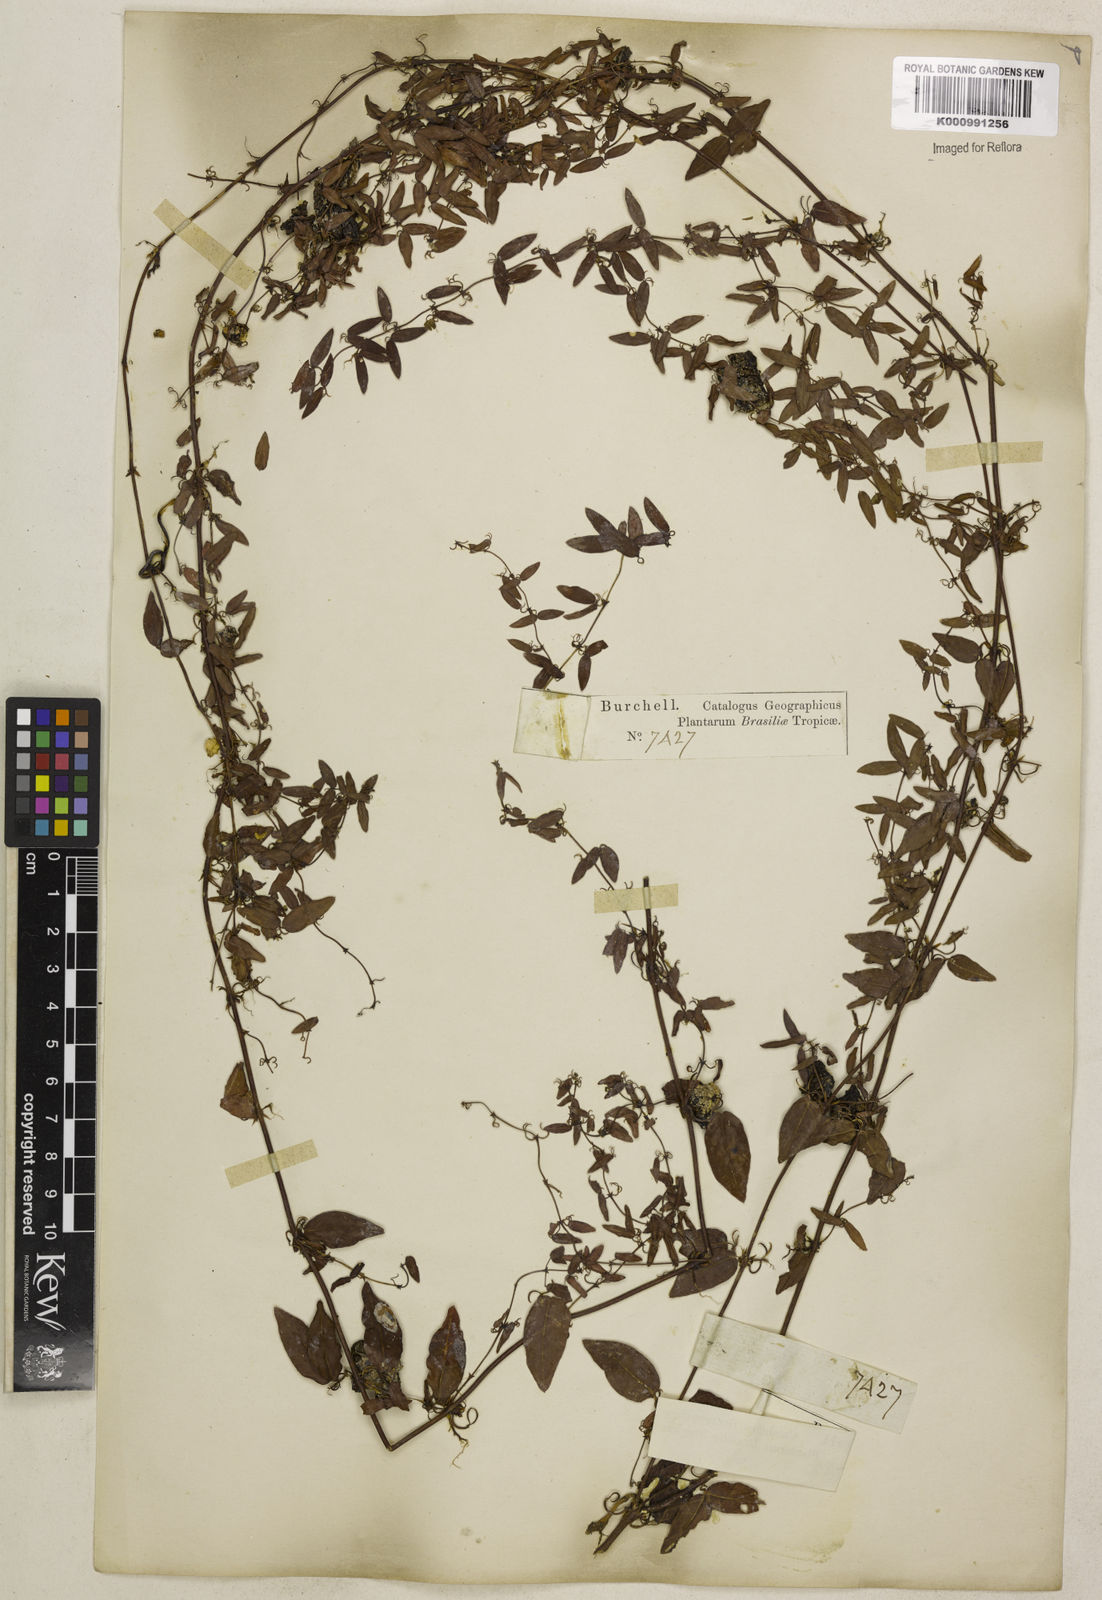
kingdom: Plantae
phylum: Tracheophyta
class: Magnoliopsida
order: Lamiales
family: Bignoniaceae
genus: Dolichandra
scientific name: Dolichandra unguis-cati
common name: Catclaw vine
